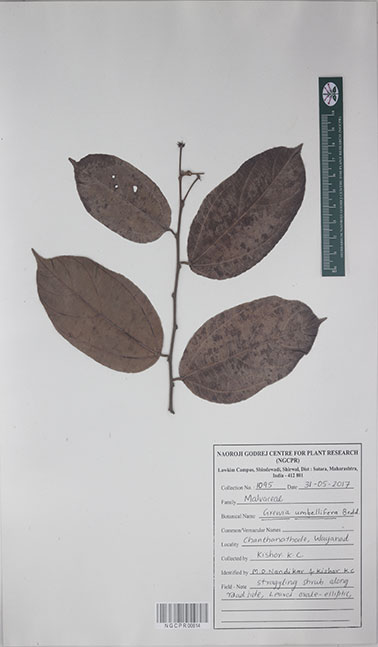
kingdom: Plantae
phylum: Tracheophyta
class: Magnoliopsida
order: Malvales
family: Malvaceae
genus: Grewia
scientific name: Grewia umbellifera
